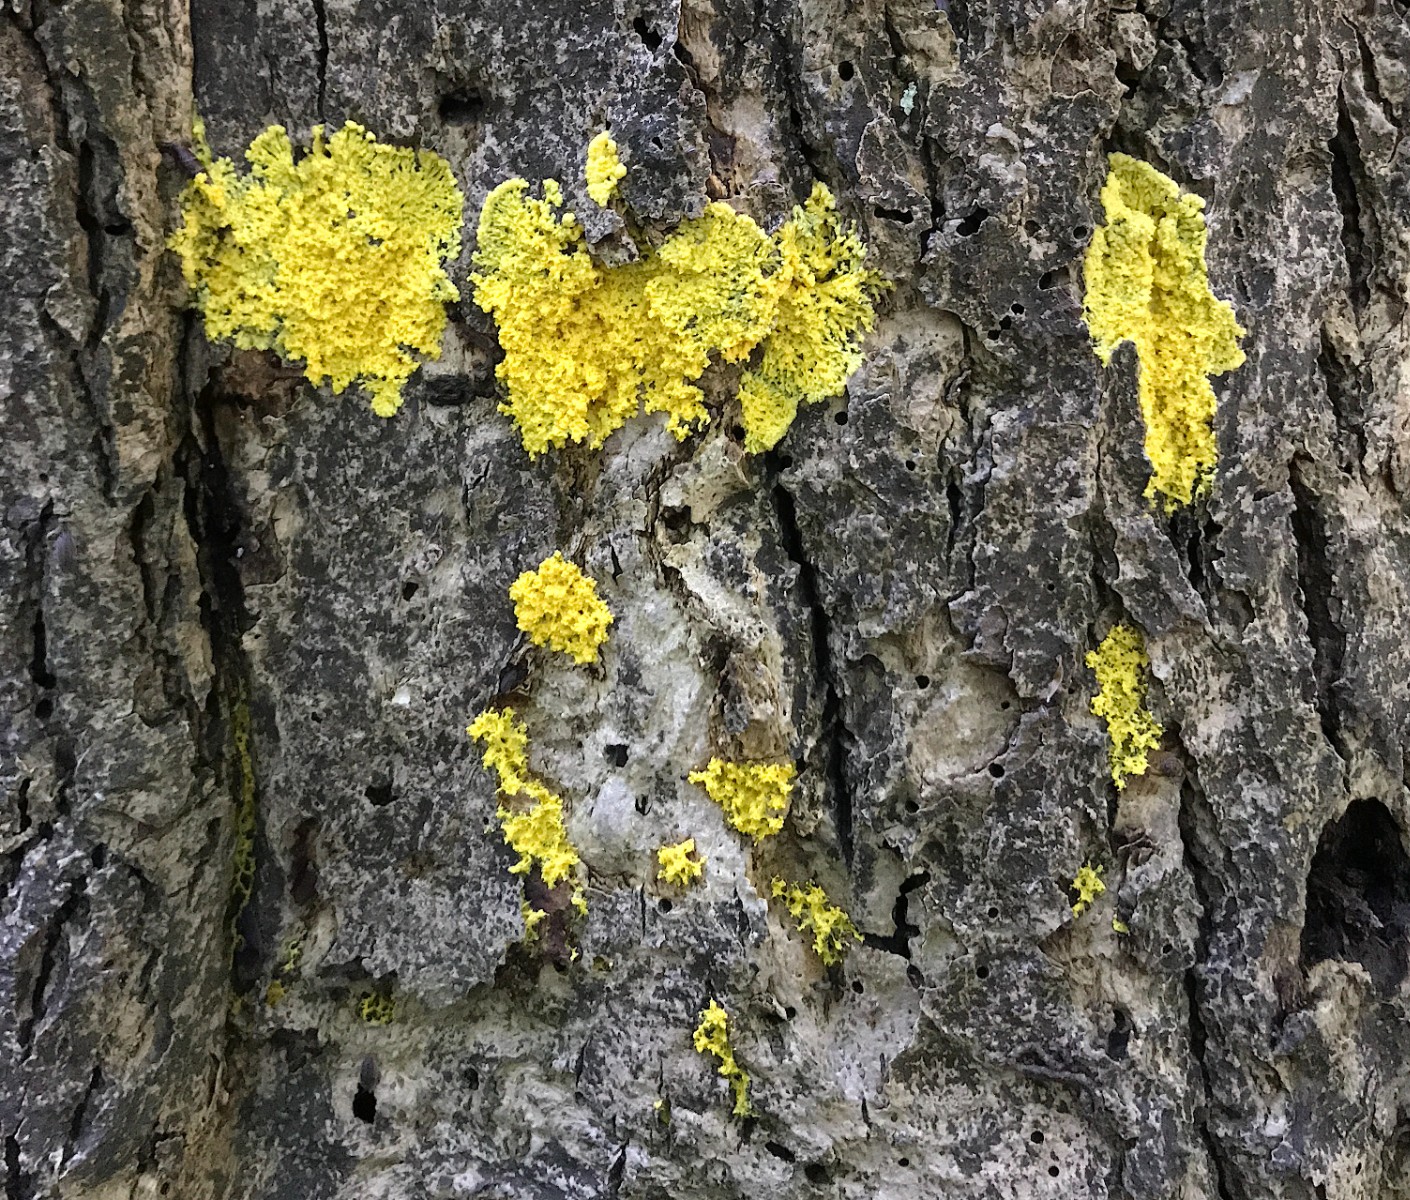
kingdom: Protozoa
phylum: Mycetozoa
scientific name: Mycetozoa
